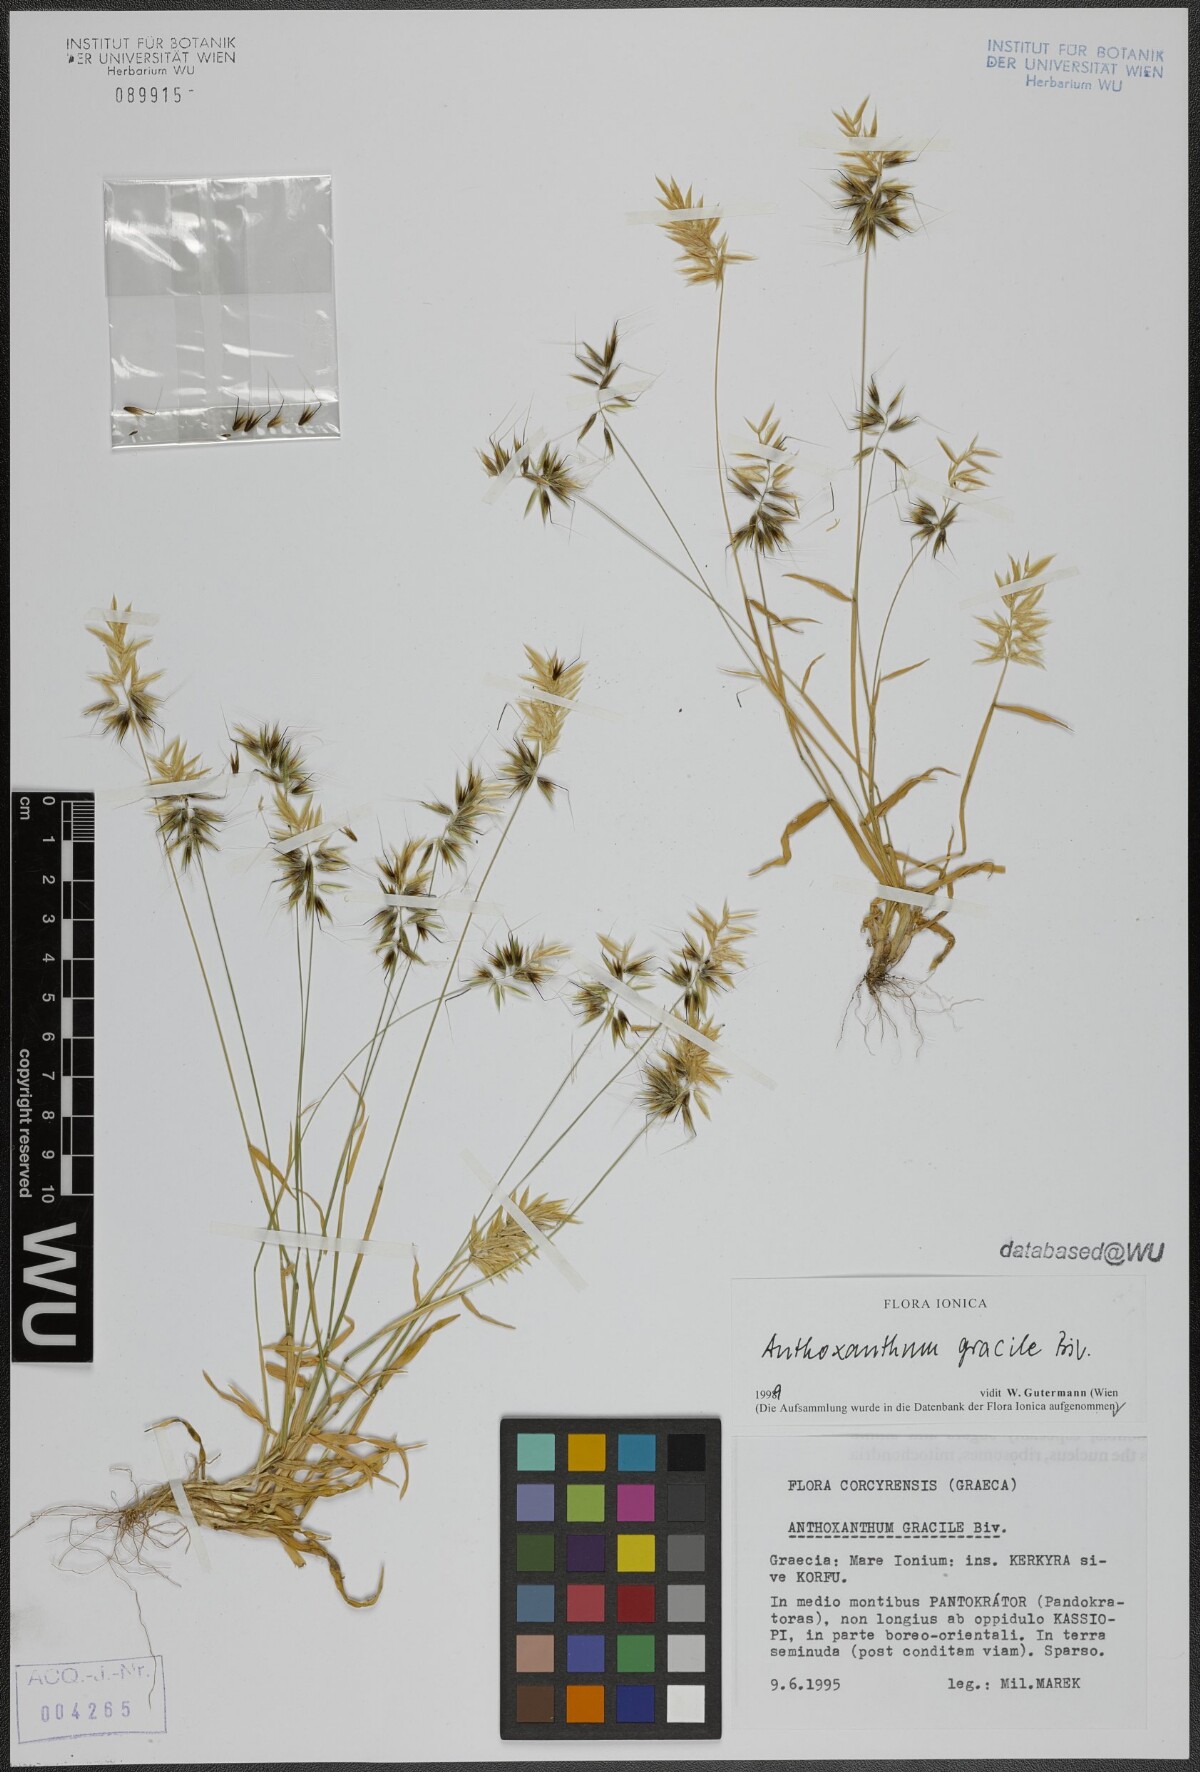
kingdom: Plantae
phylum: Tracheophyta
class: Liliopsida
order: Poales
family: Poaceae
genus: Anthoxanthum
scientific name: Anthoxanthum gracile
